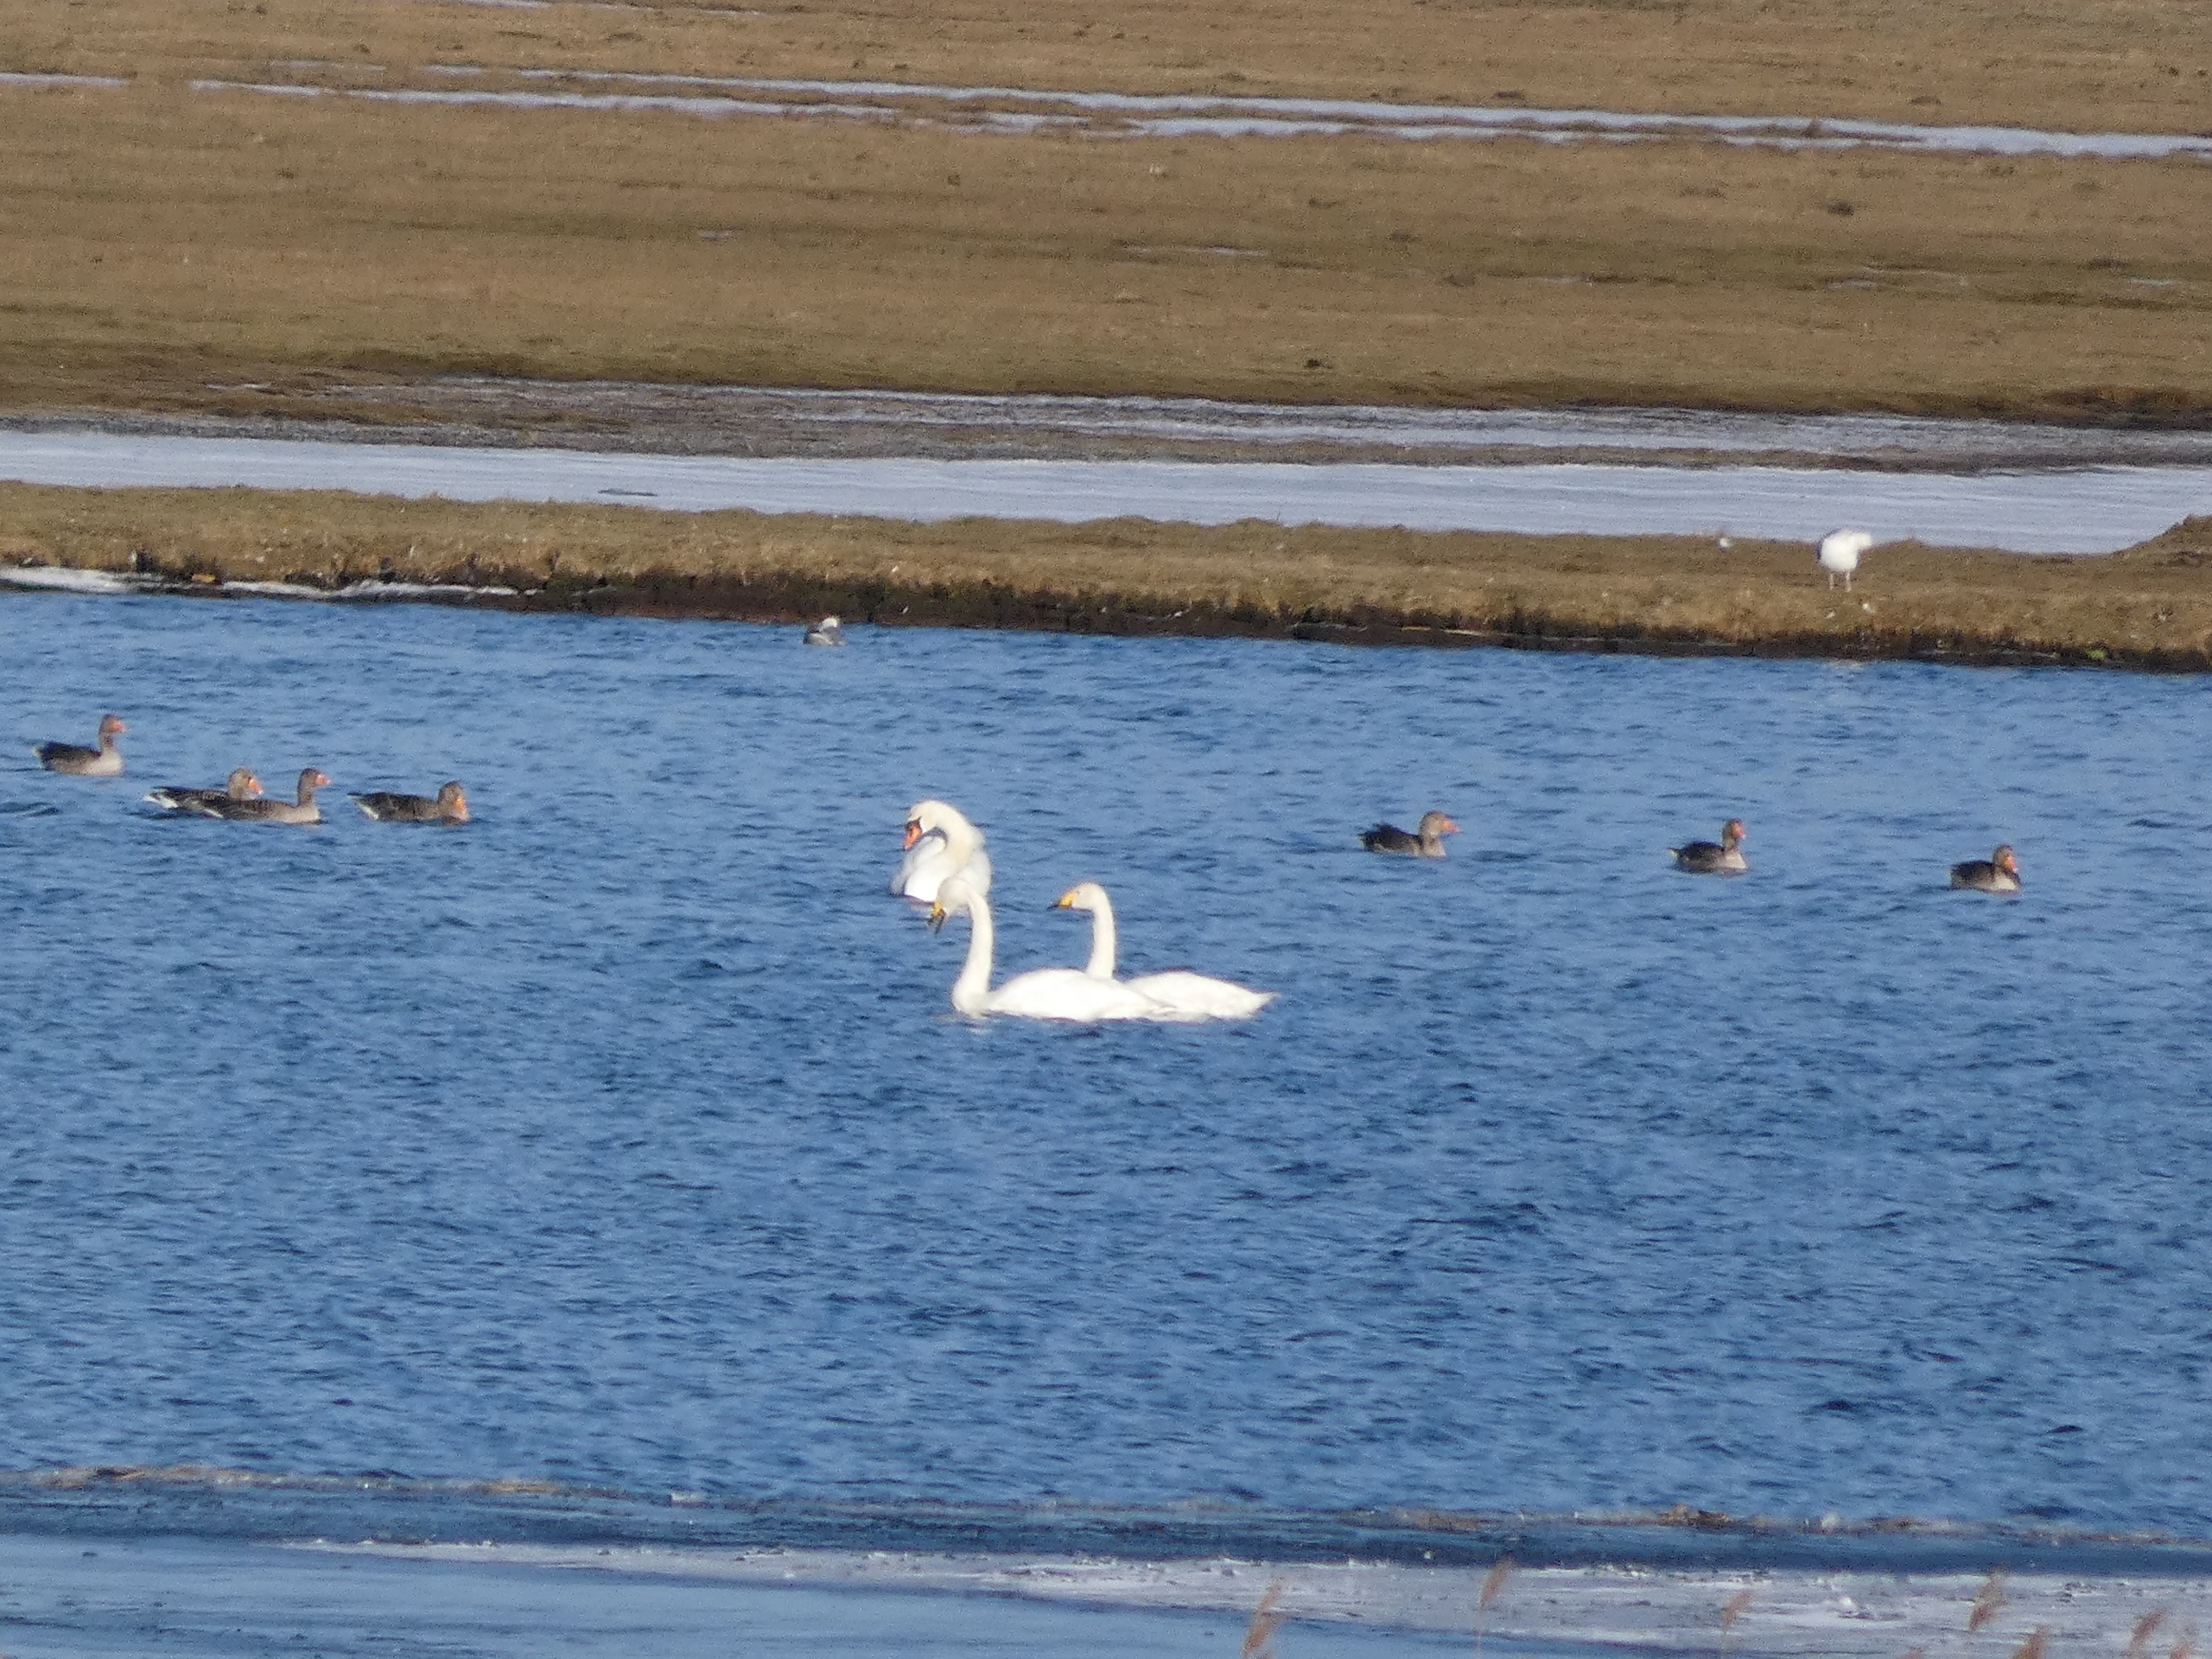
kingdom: Animalia
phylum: Chordata
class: Aves
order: Anseriformes
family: Anatidae
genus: Cygnus
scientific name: Cygnus olor
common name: Knopsvane
